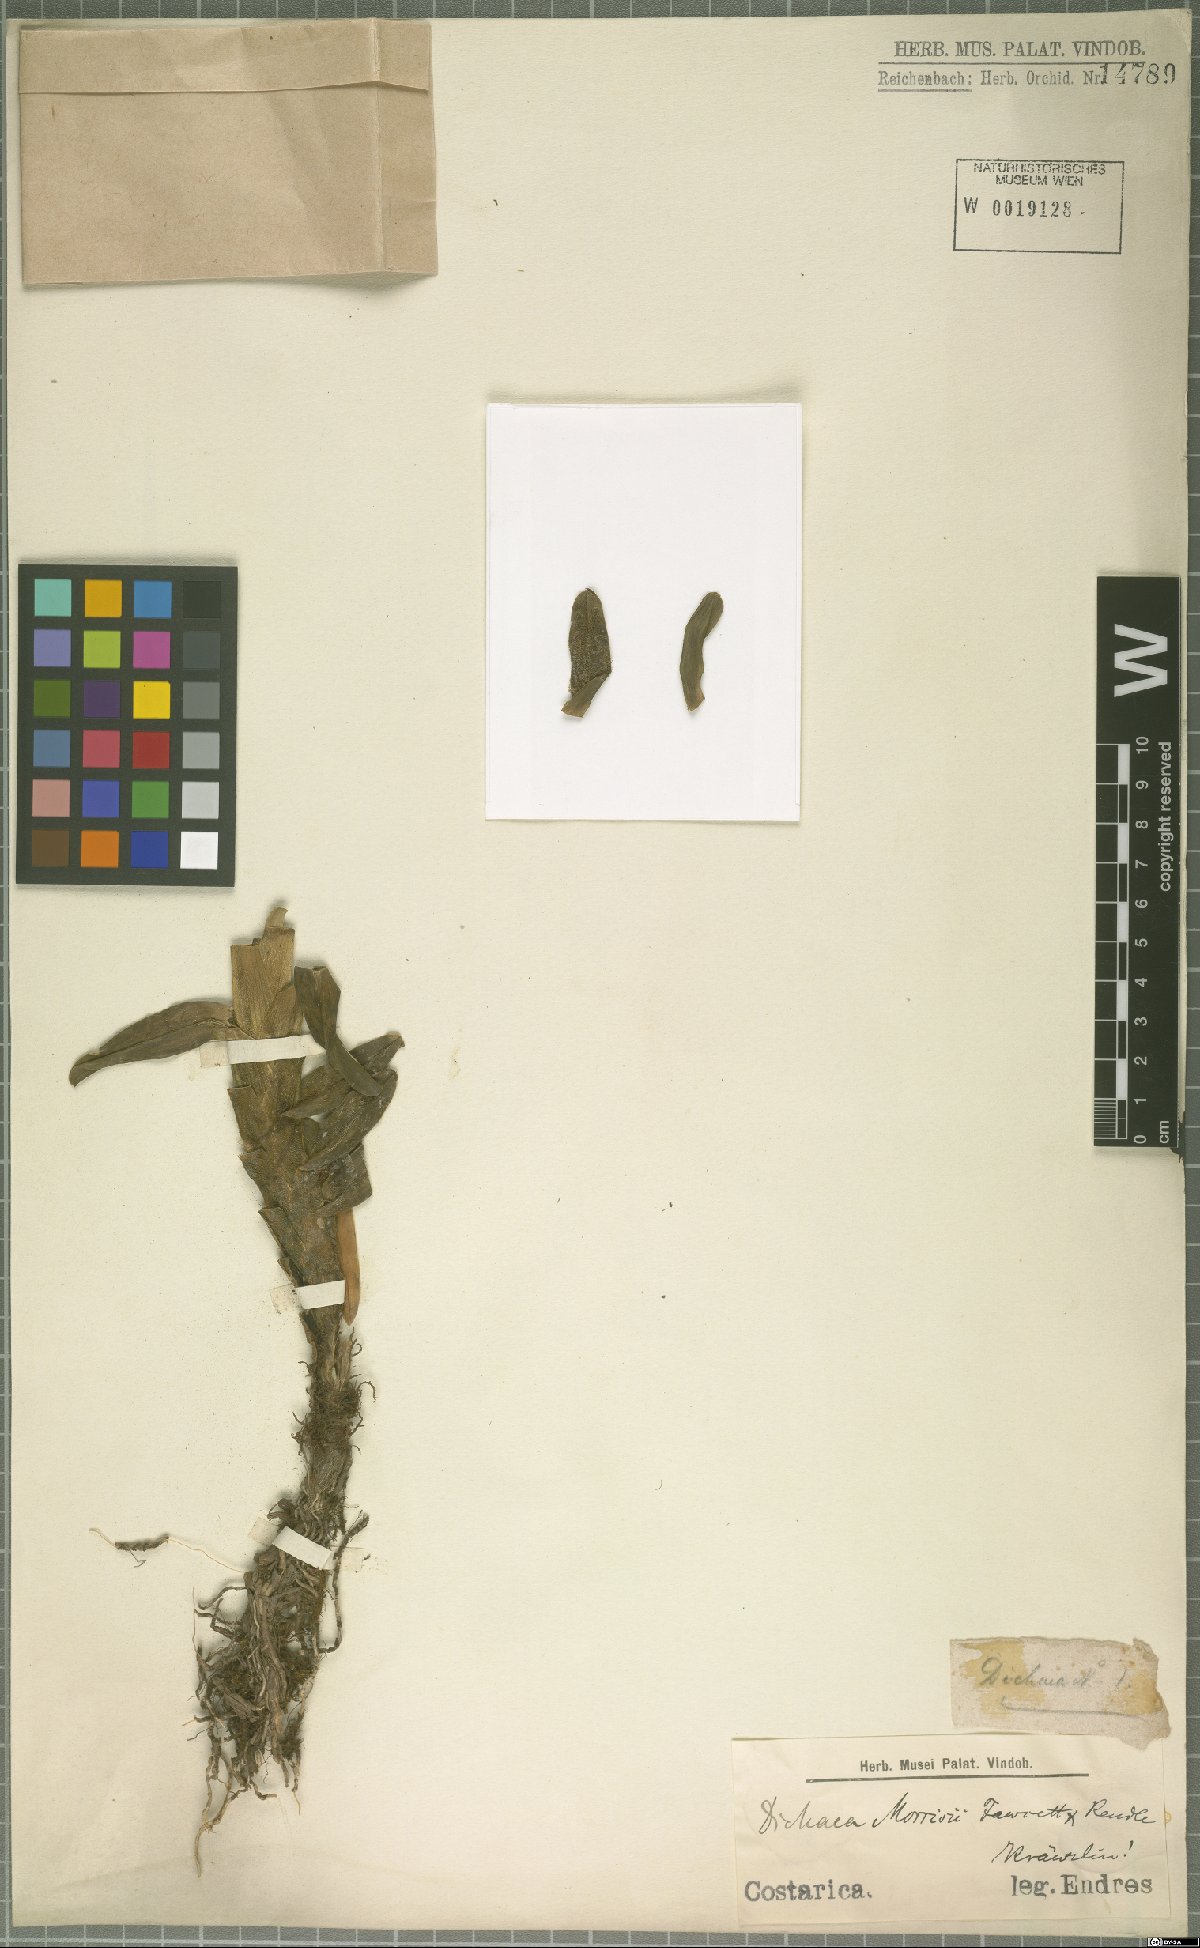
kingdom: Plantae
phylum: Tracheophyta
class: Liliopsida
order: Asparagales
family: Orchidaceae
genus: Dichaea
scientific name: Dichaea morrisii
